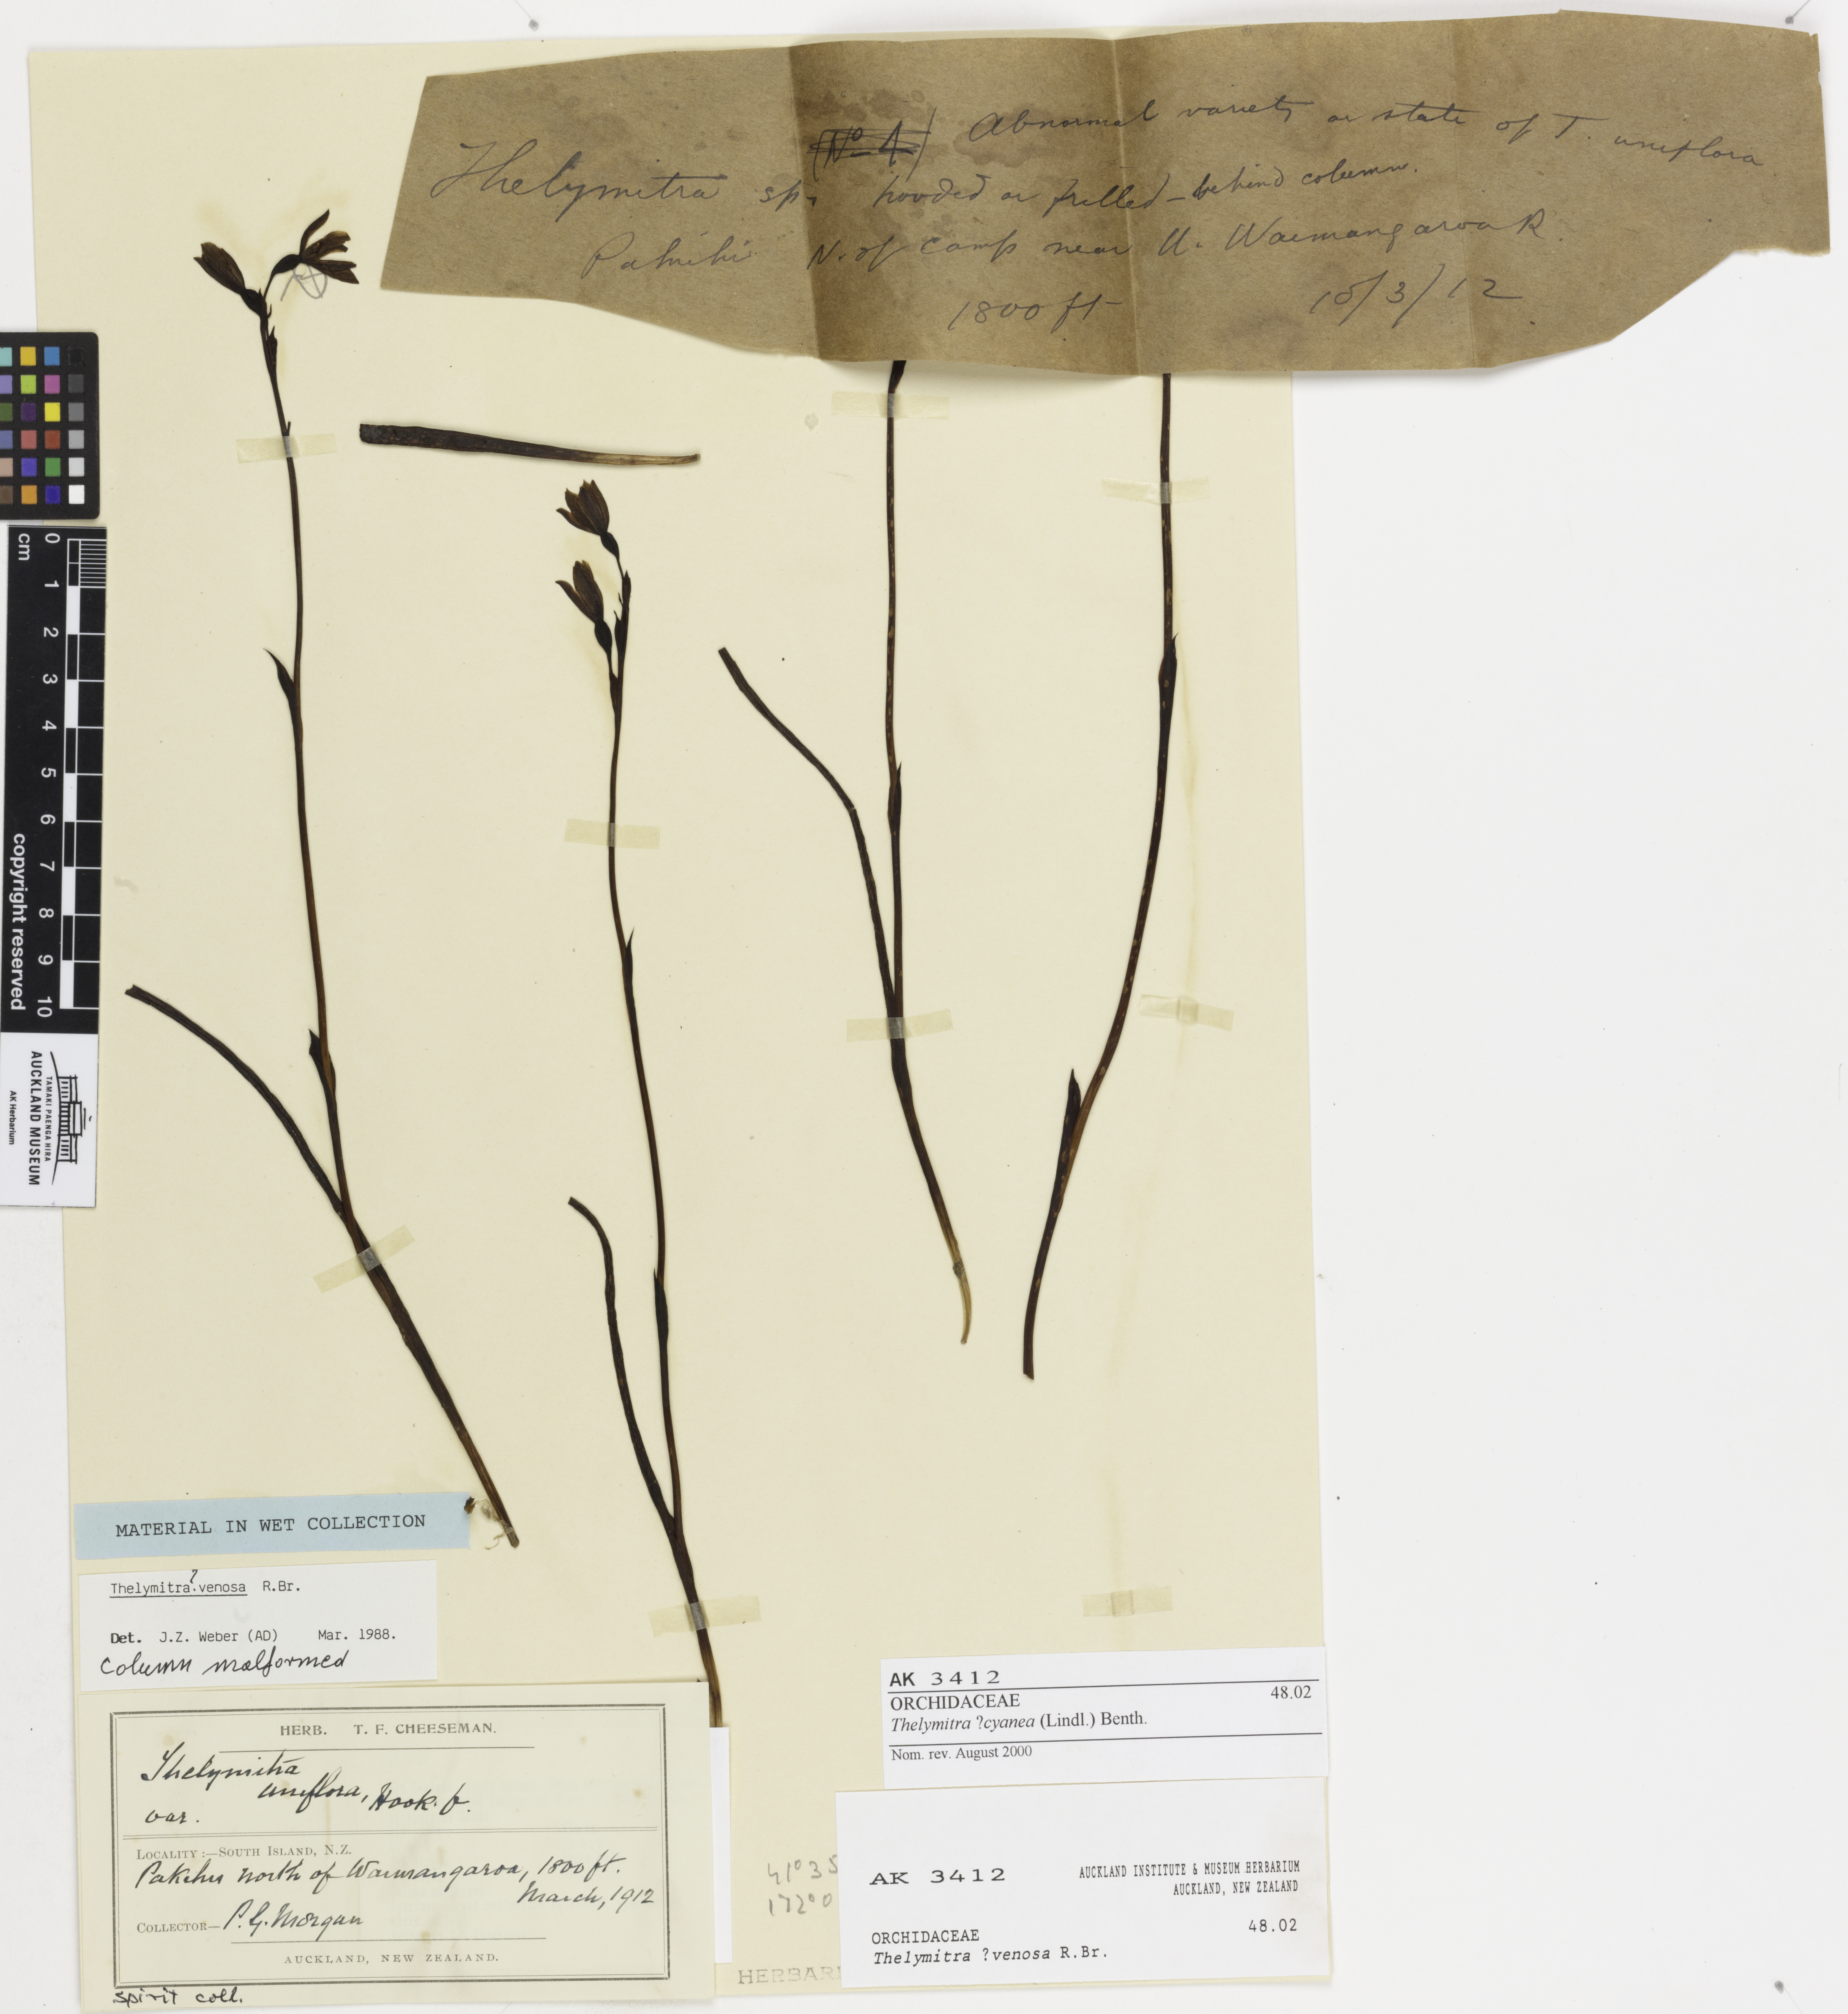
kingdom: Plantae
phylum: Tracheophyta
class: Liliopsida
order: Asparagales
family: Orchidaceae
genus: Thelymitra
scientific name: Thelymitra cyanea
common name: Blue sun-orchid
